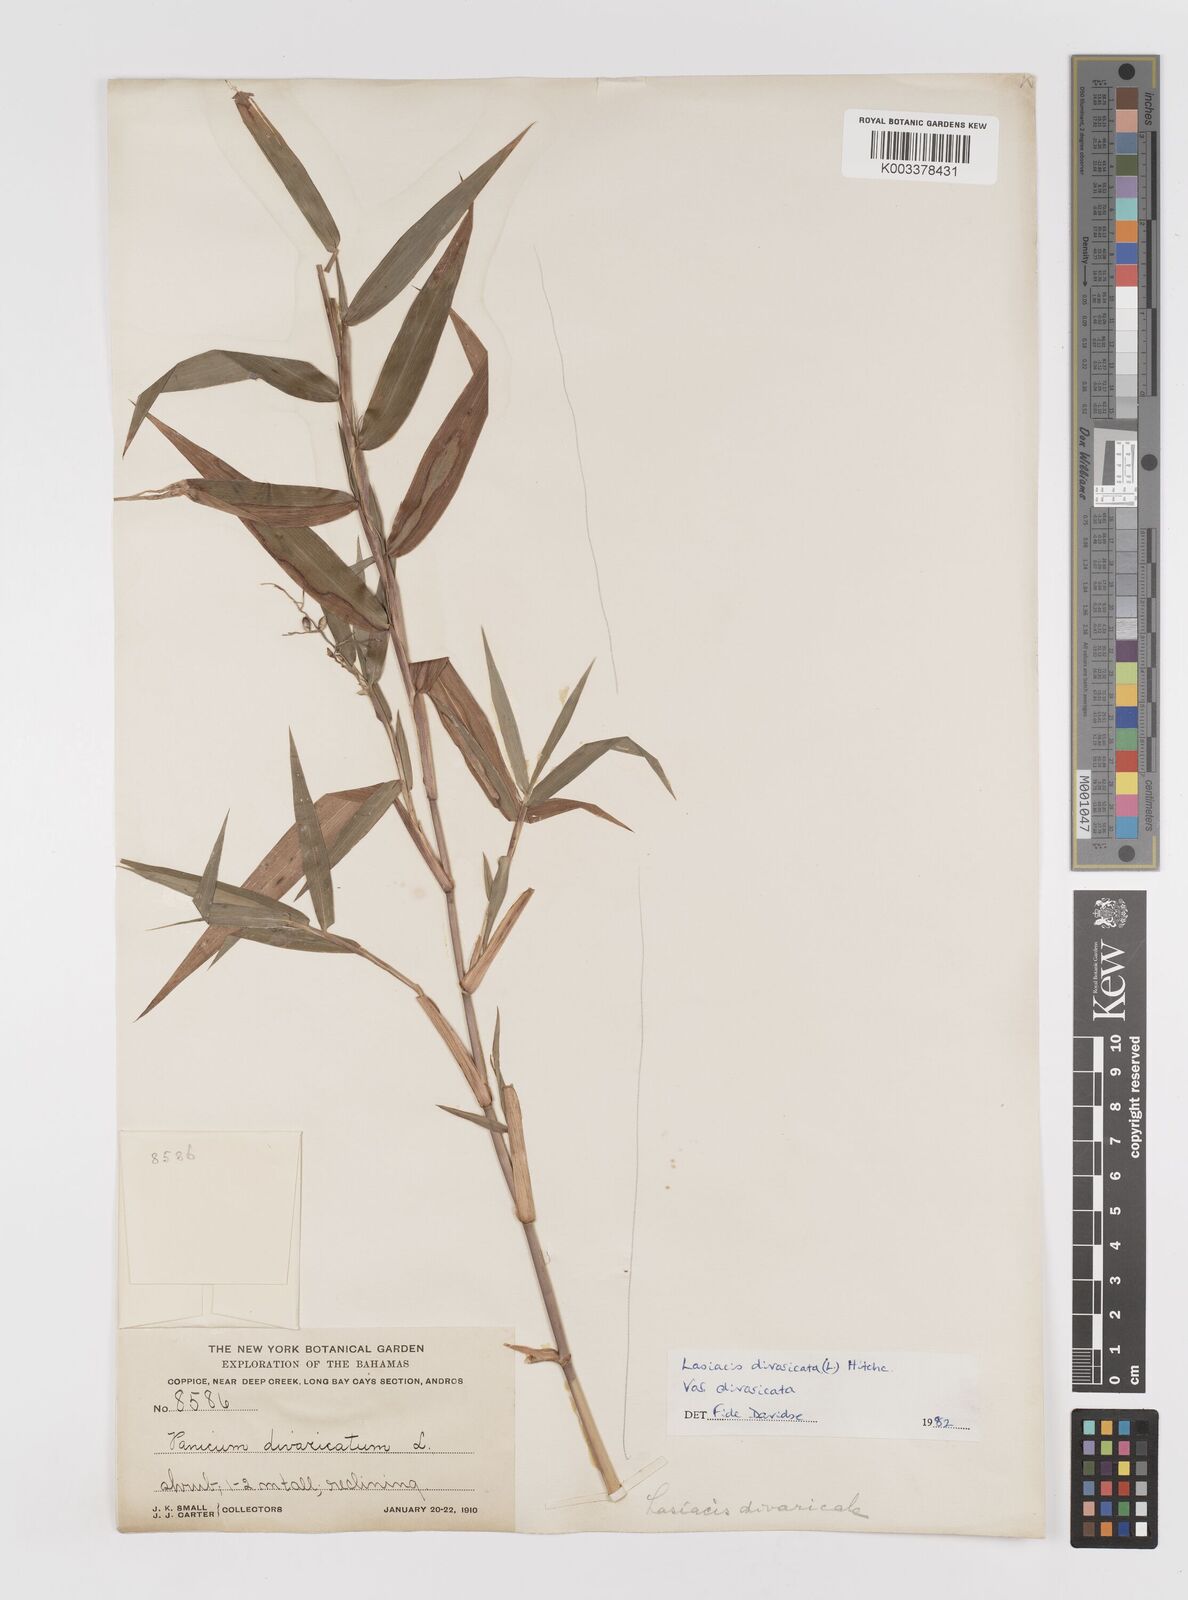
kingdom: Plantae
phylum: Tracheophyta
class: Liliopsida
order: Poales
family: Poaceae
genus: Lasiacis
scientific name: Lasiacis divaricata
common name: Smallcane
